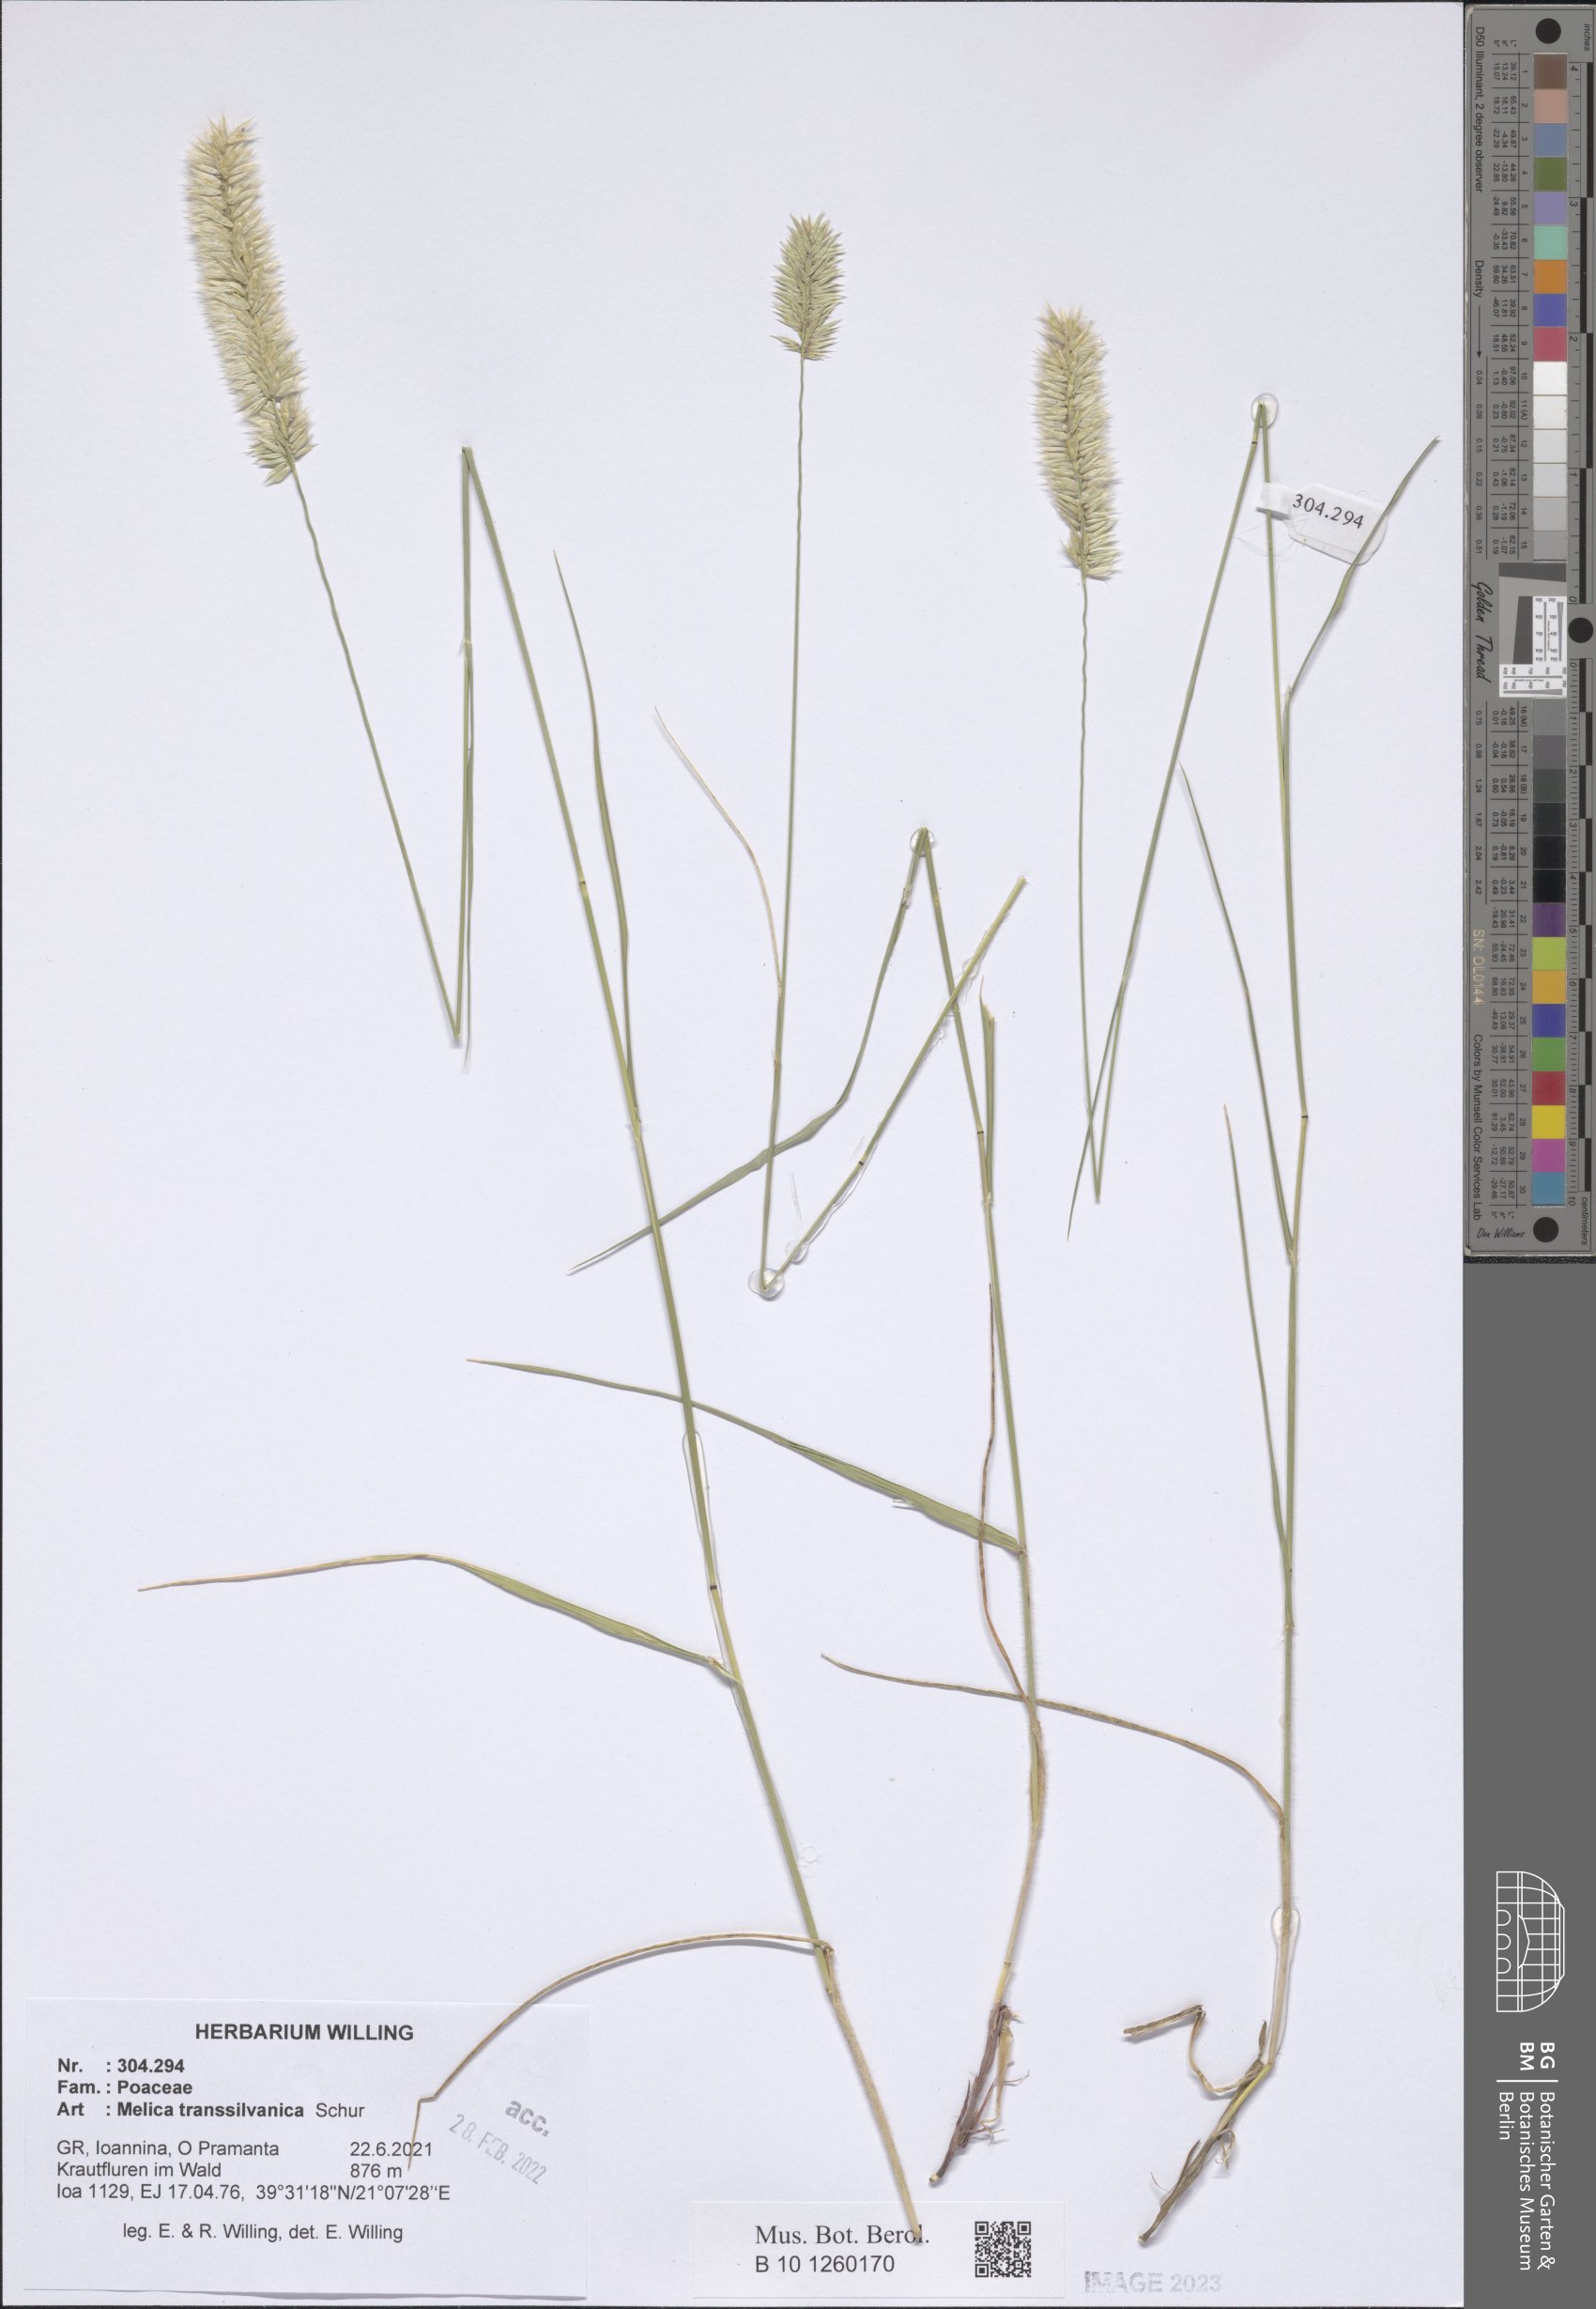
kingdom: Plantae
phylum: Tracheophyta
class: Liliopsida
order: Poales
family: Poaceae
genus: Melica
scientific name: Melica transsilvanica
